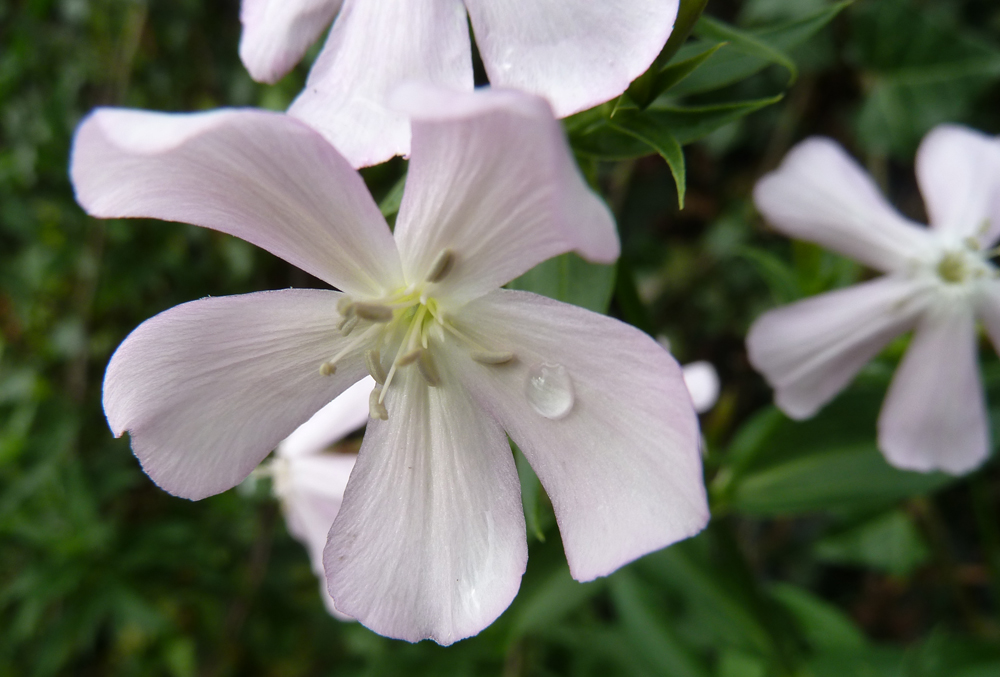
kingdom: Plantae
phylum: Tracheophyta
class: Magnoliopsida
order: Caryophyllales
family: Caryophyllaceae
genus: Saponaria
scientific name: Saponaria officinalis
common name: Soapwort
